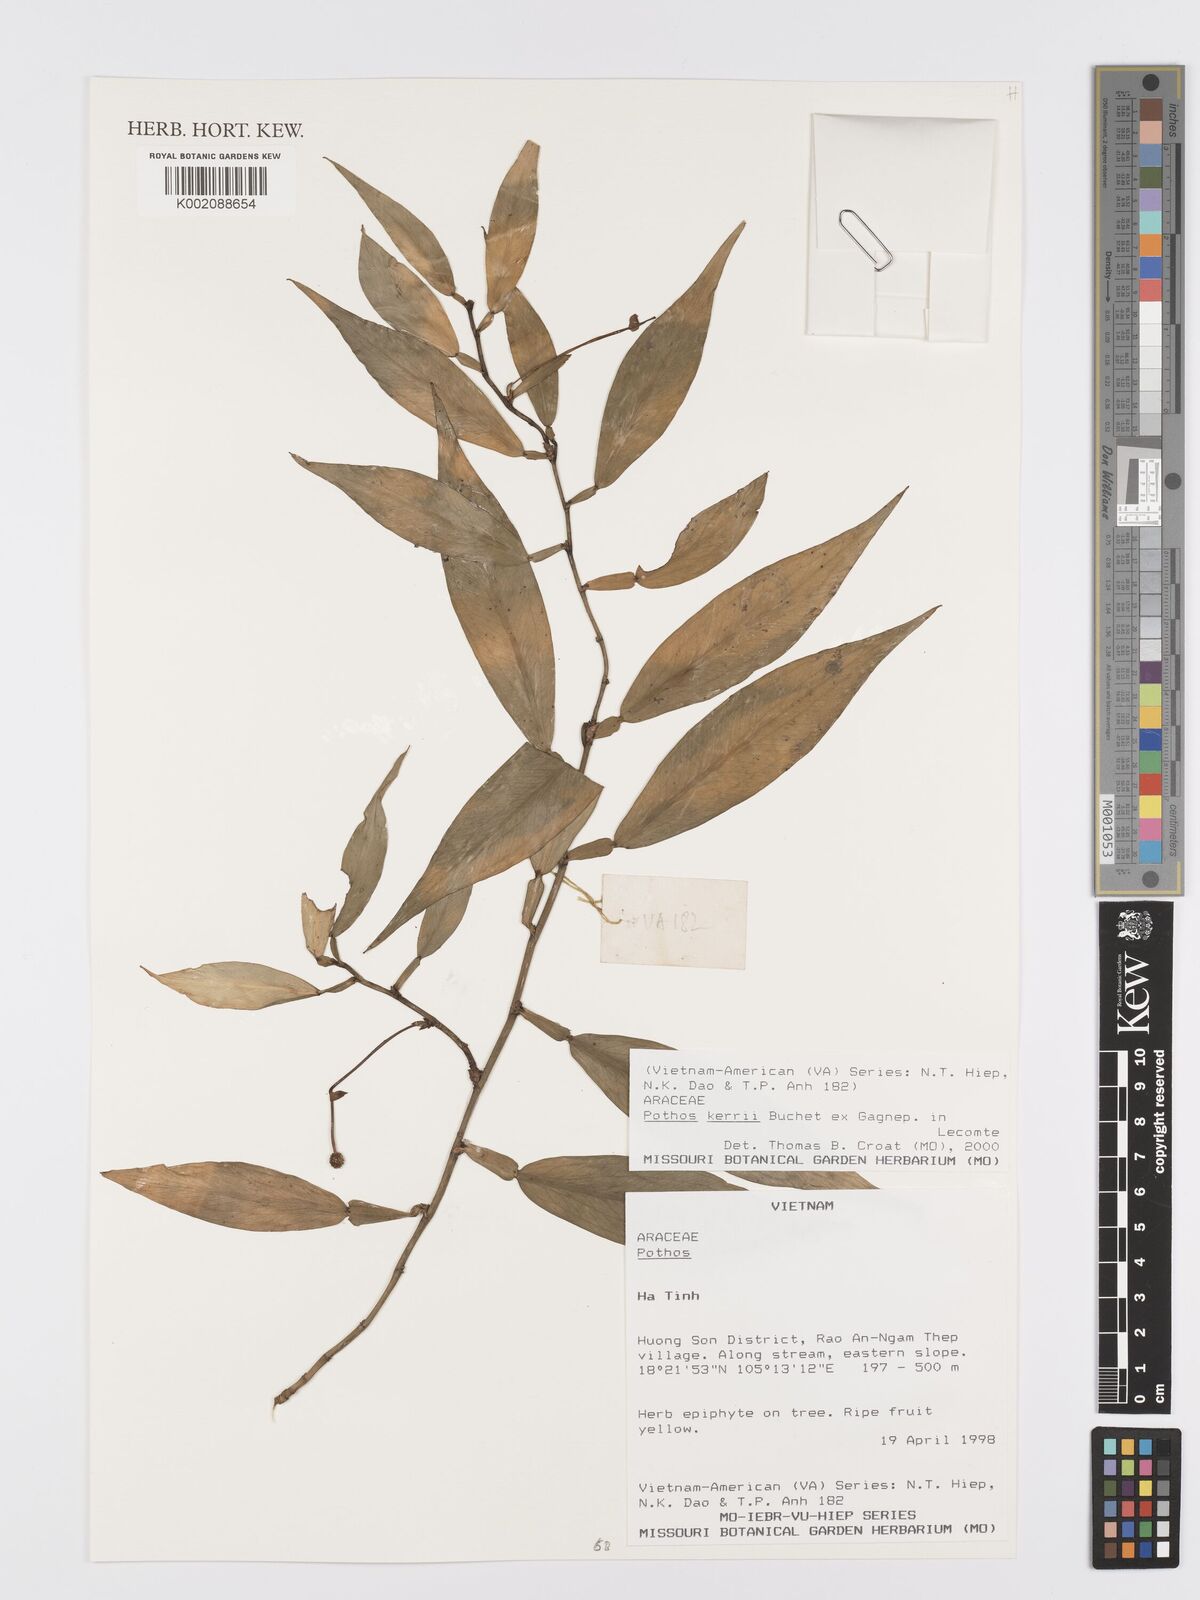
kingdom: Plantae
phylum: Tracheophyta
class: Liliopsida
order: Alismatales
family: Araceae
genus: Pothos
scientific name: Pothos kerrii
